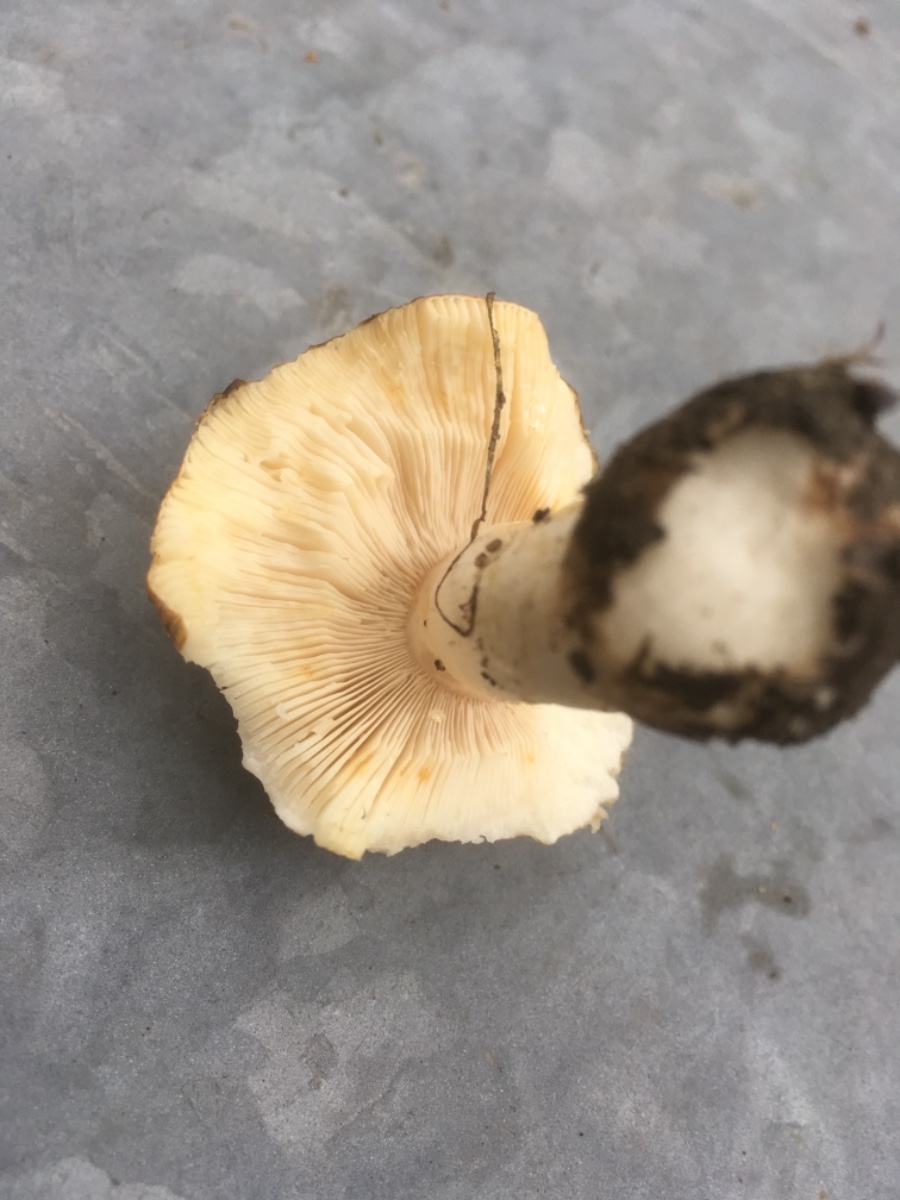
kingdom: Fungi
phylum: Basidiomycota
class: Agaricomycetes
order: Russulales
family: Russulaceae
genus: Russula
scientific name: Russula ochroleuca
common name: okkergul skørhat
